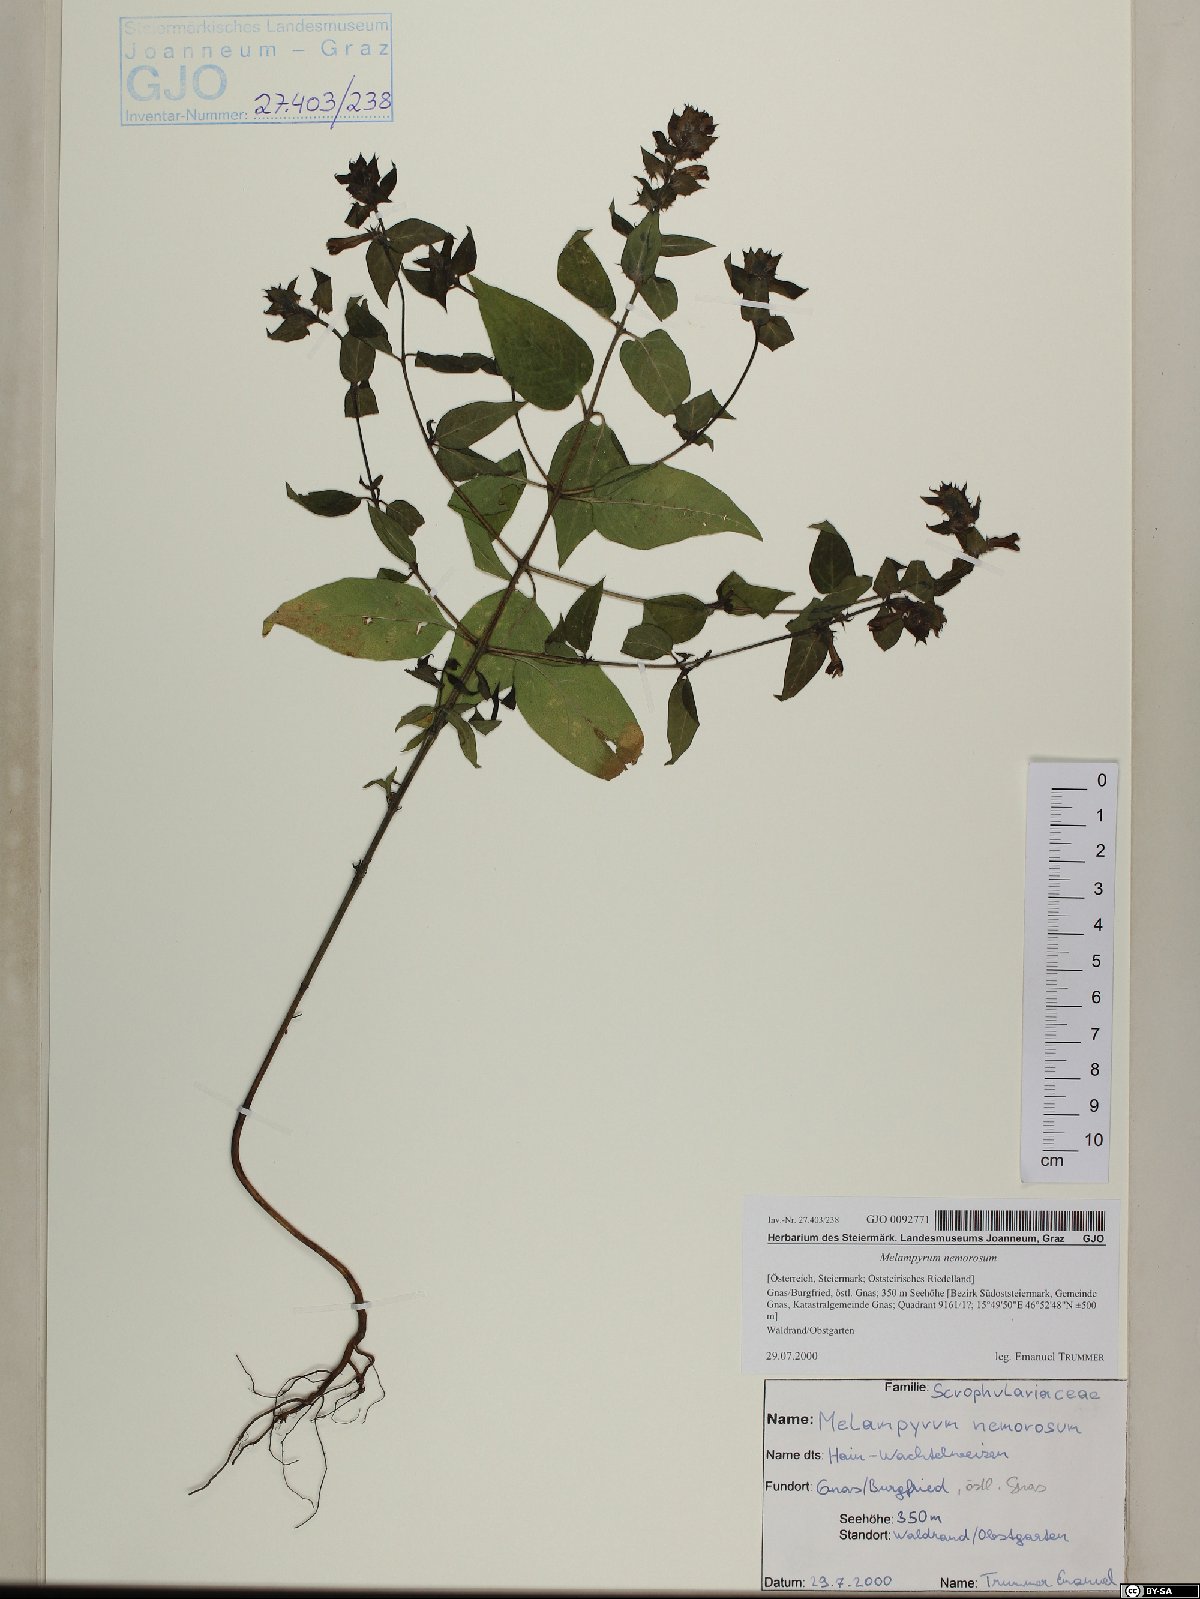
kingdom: Plantae
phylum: Tracheophyta
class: Magnoliopsida
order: Lamiales
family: Orobanchaceae
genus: Melampyrum
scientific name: Melampyrum nemorosum
